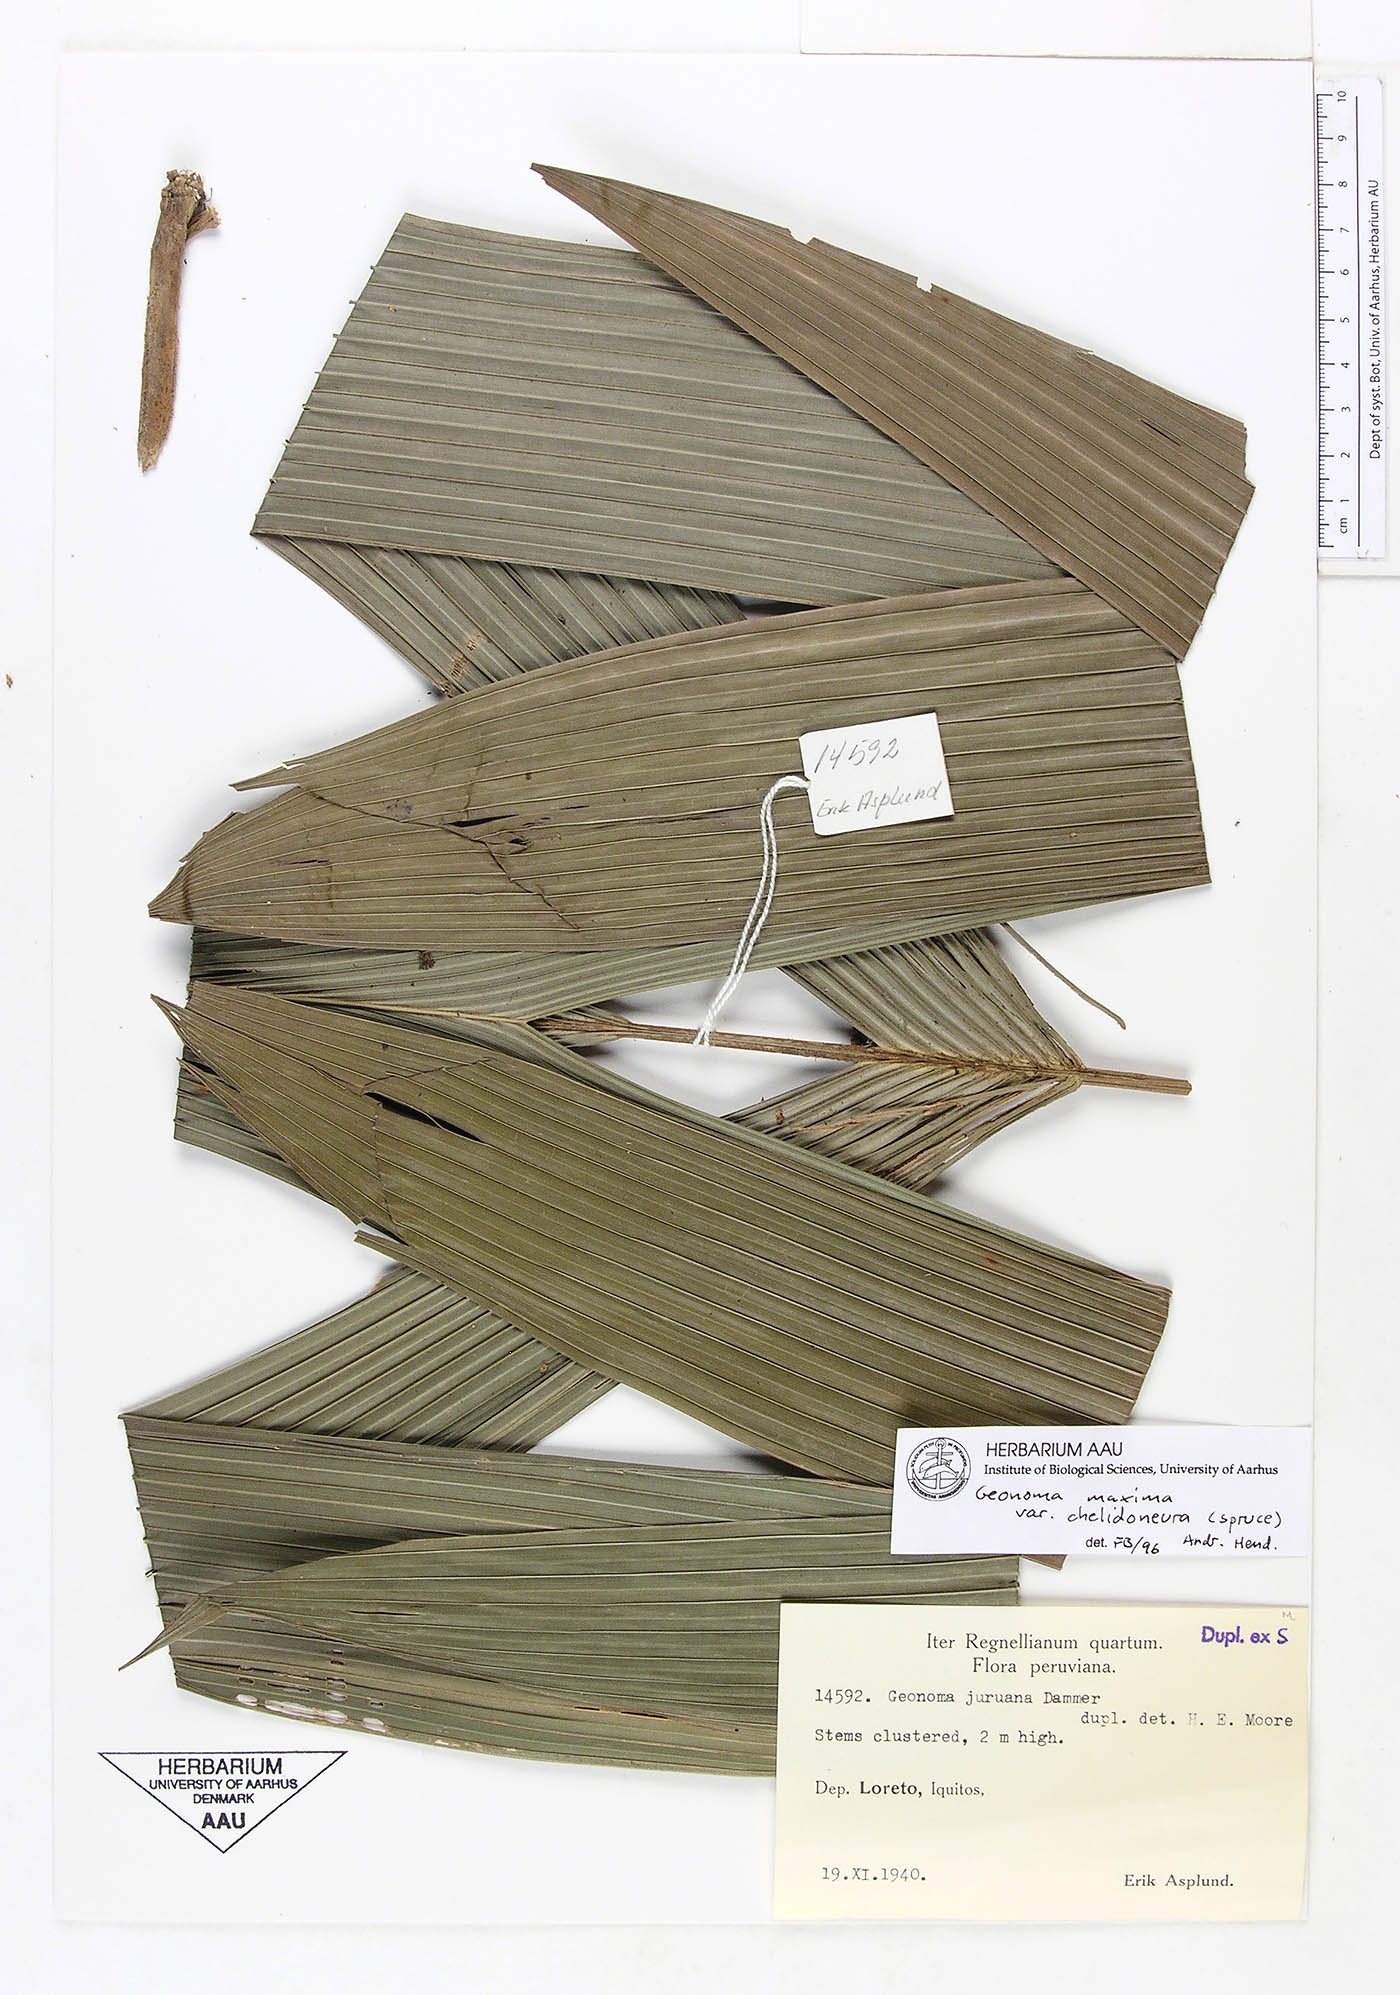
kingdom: Plantae
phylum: Tracheophyta
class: Liliopsida
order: Arecales
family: Arecaceae
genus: Geonoma
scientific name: Geonoma maxima
